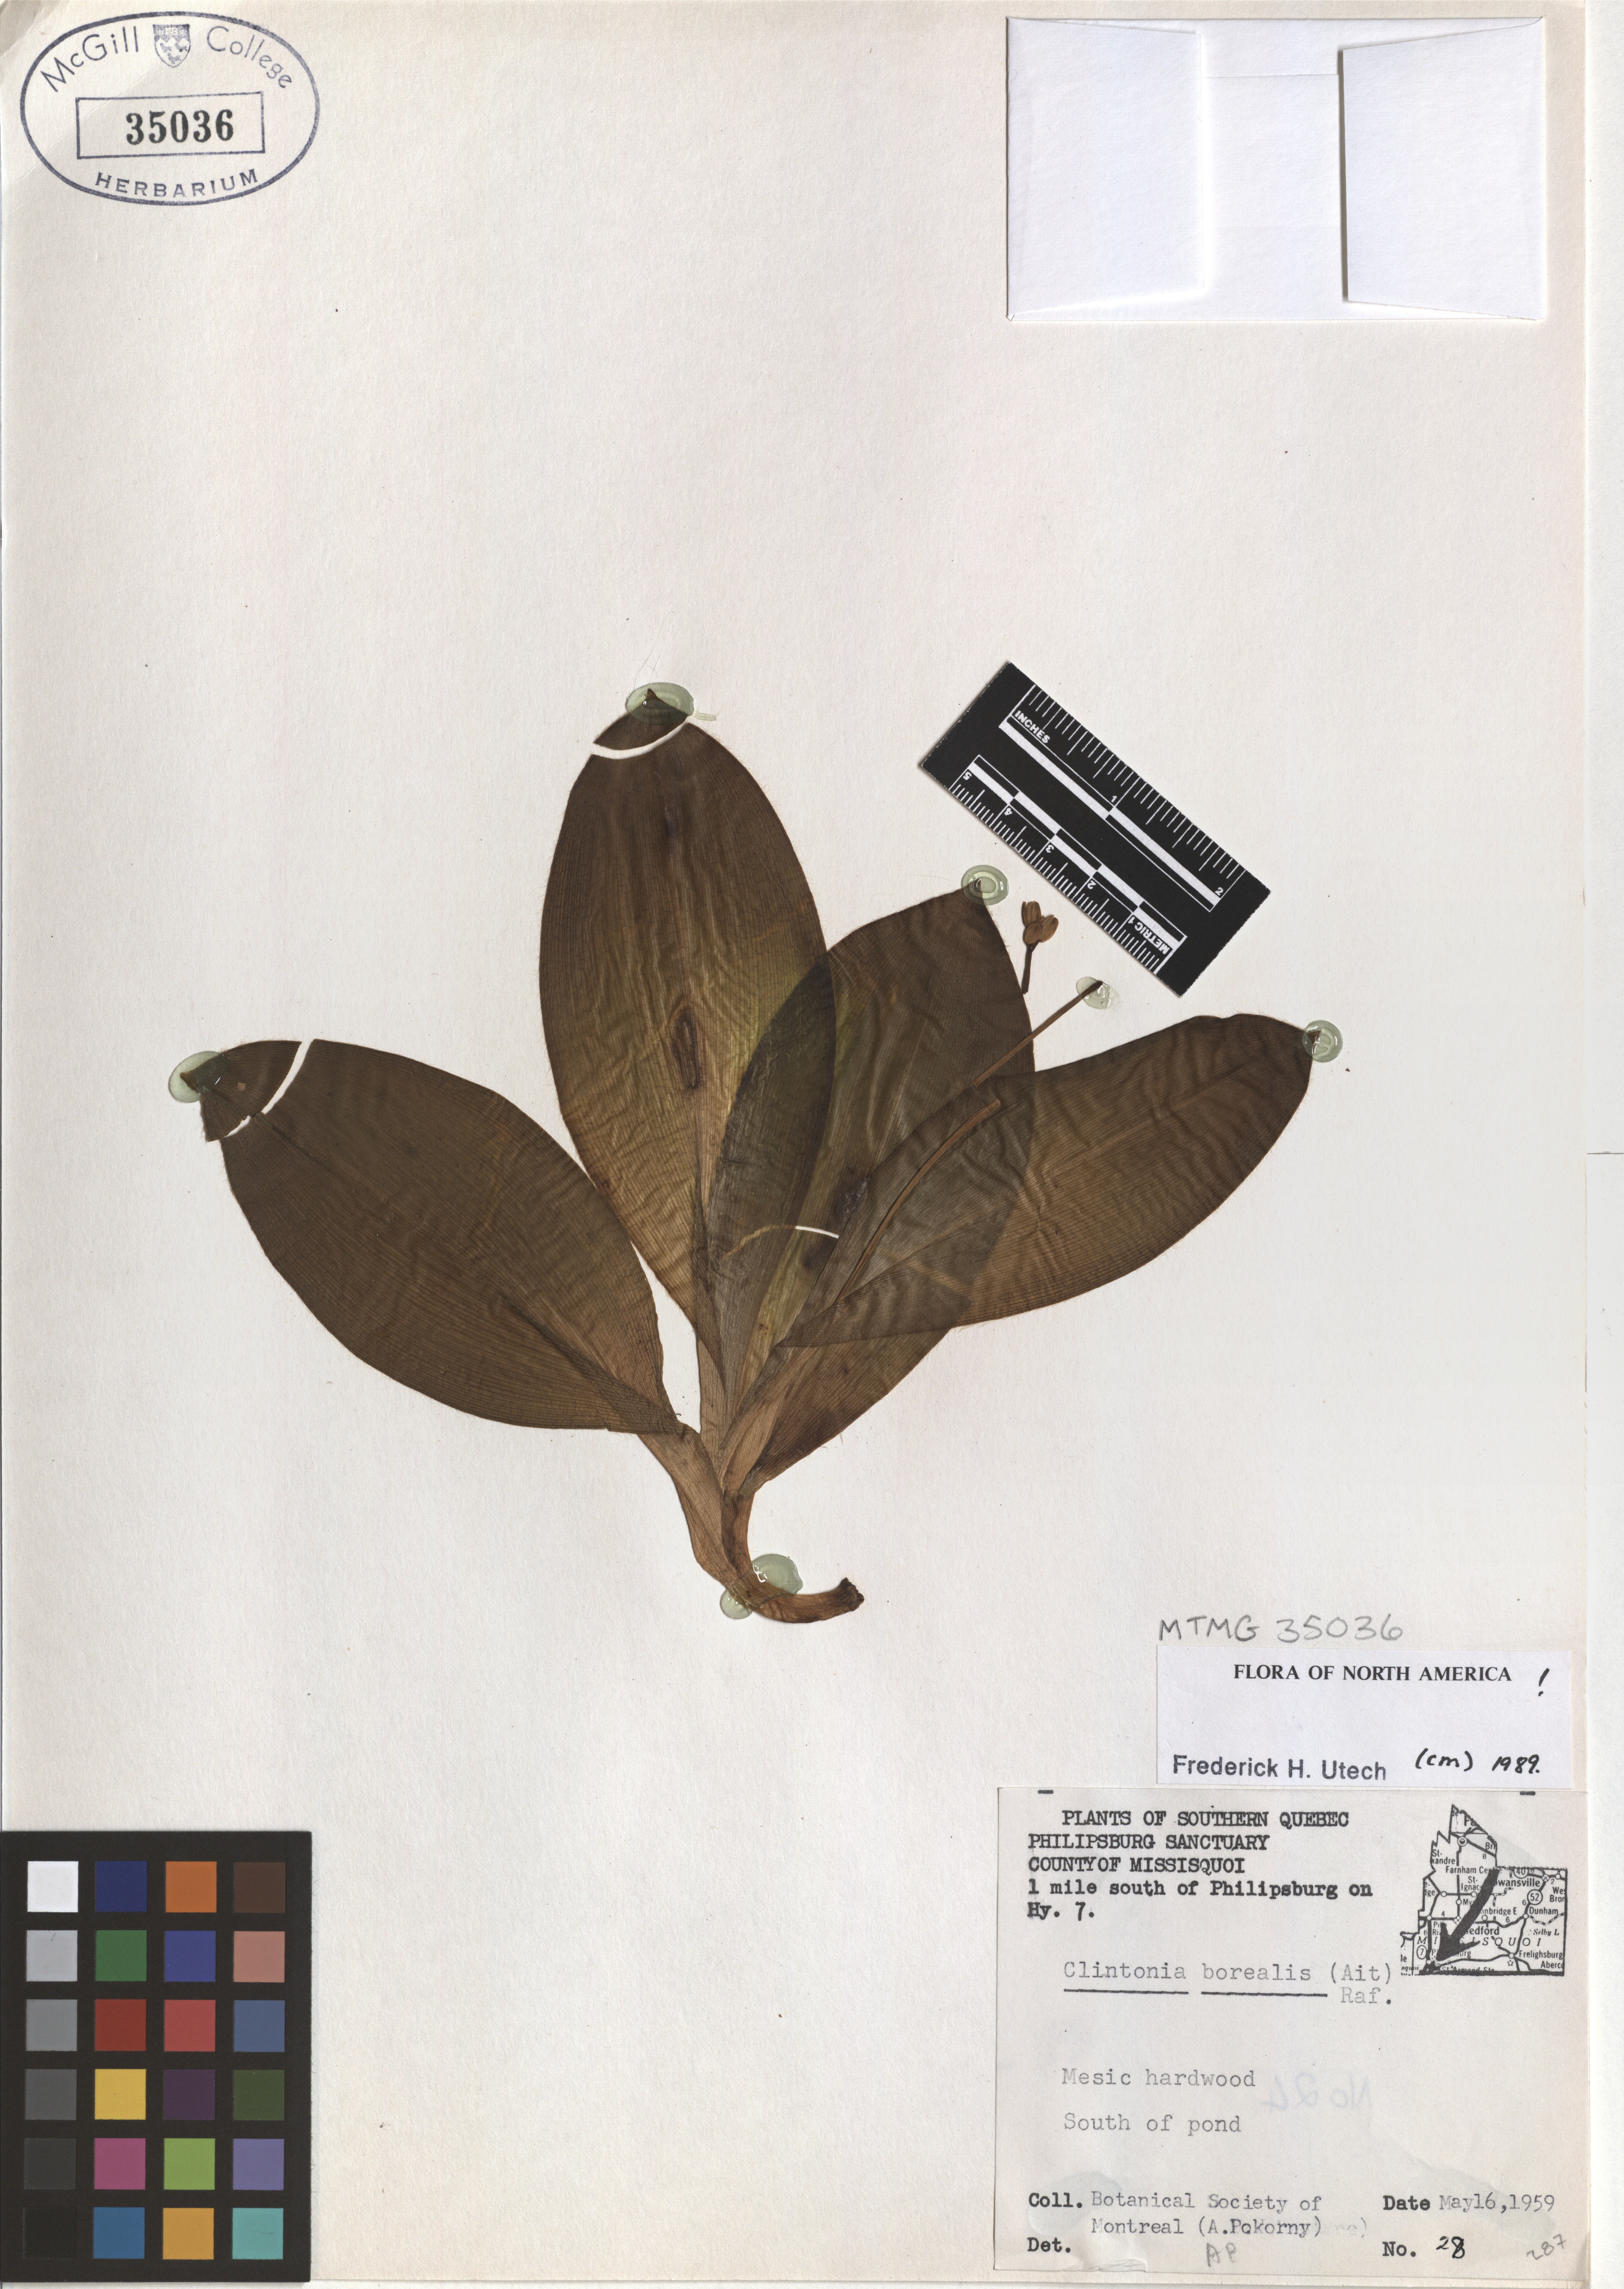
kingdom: Plantae
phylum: Tracheophyta
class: Liliopsida
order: Liliales
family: Liliaceae
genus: Clintonia
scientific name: Clintonia borealis
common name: Yellow clintonia
